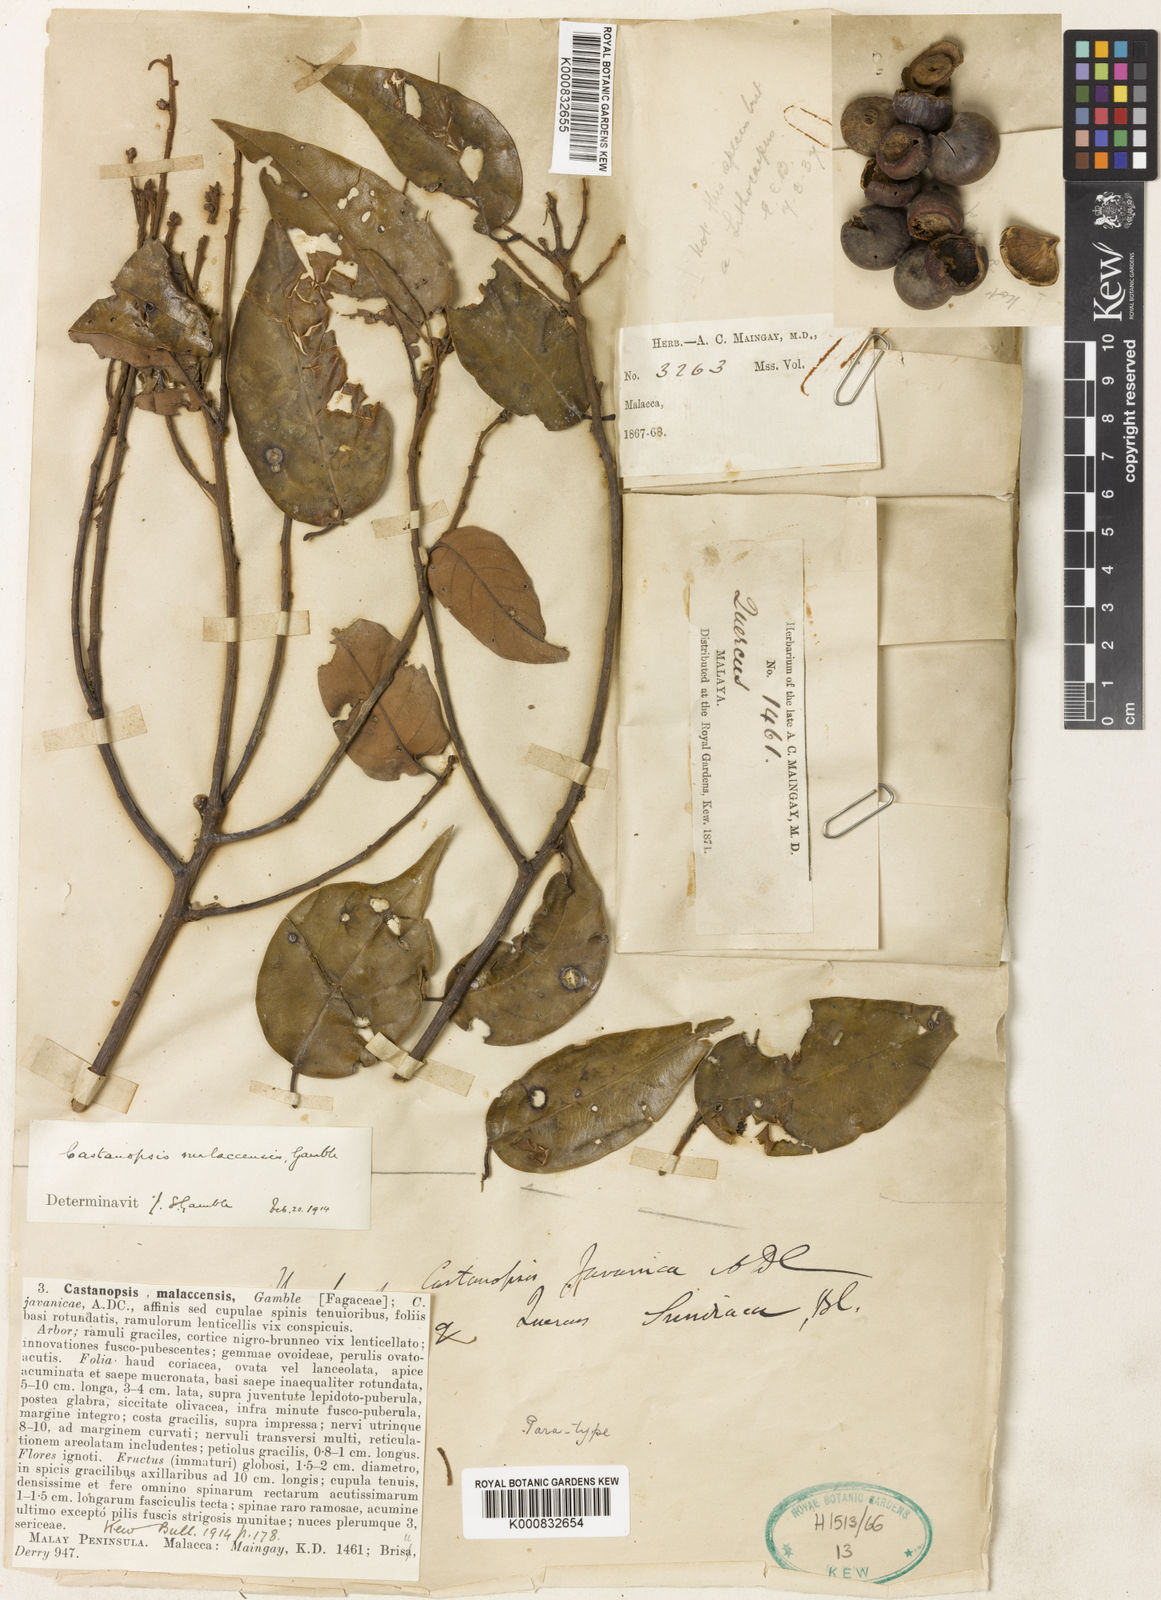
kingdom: Plantae
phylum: Tracheophyta
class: Magnoliopsida
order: Fagales
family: Fagaceae
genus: Castanopsis
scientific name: Castanopsis malaccensis
